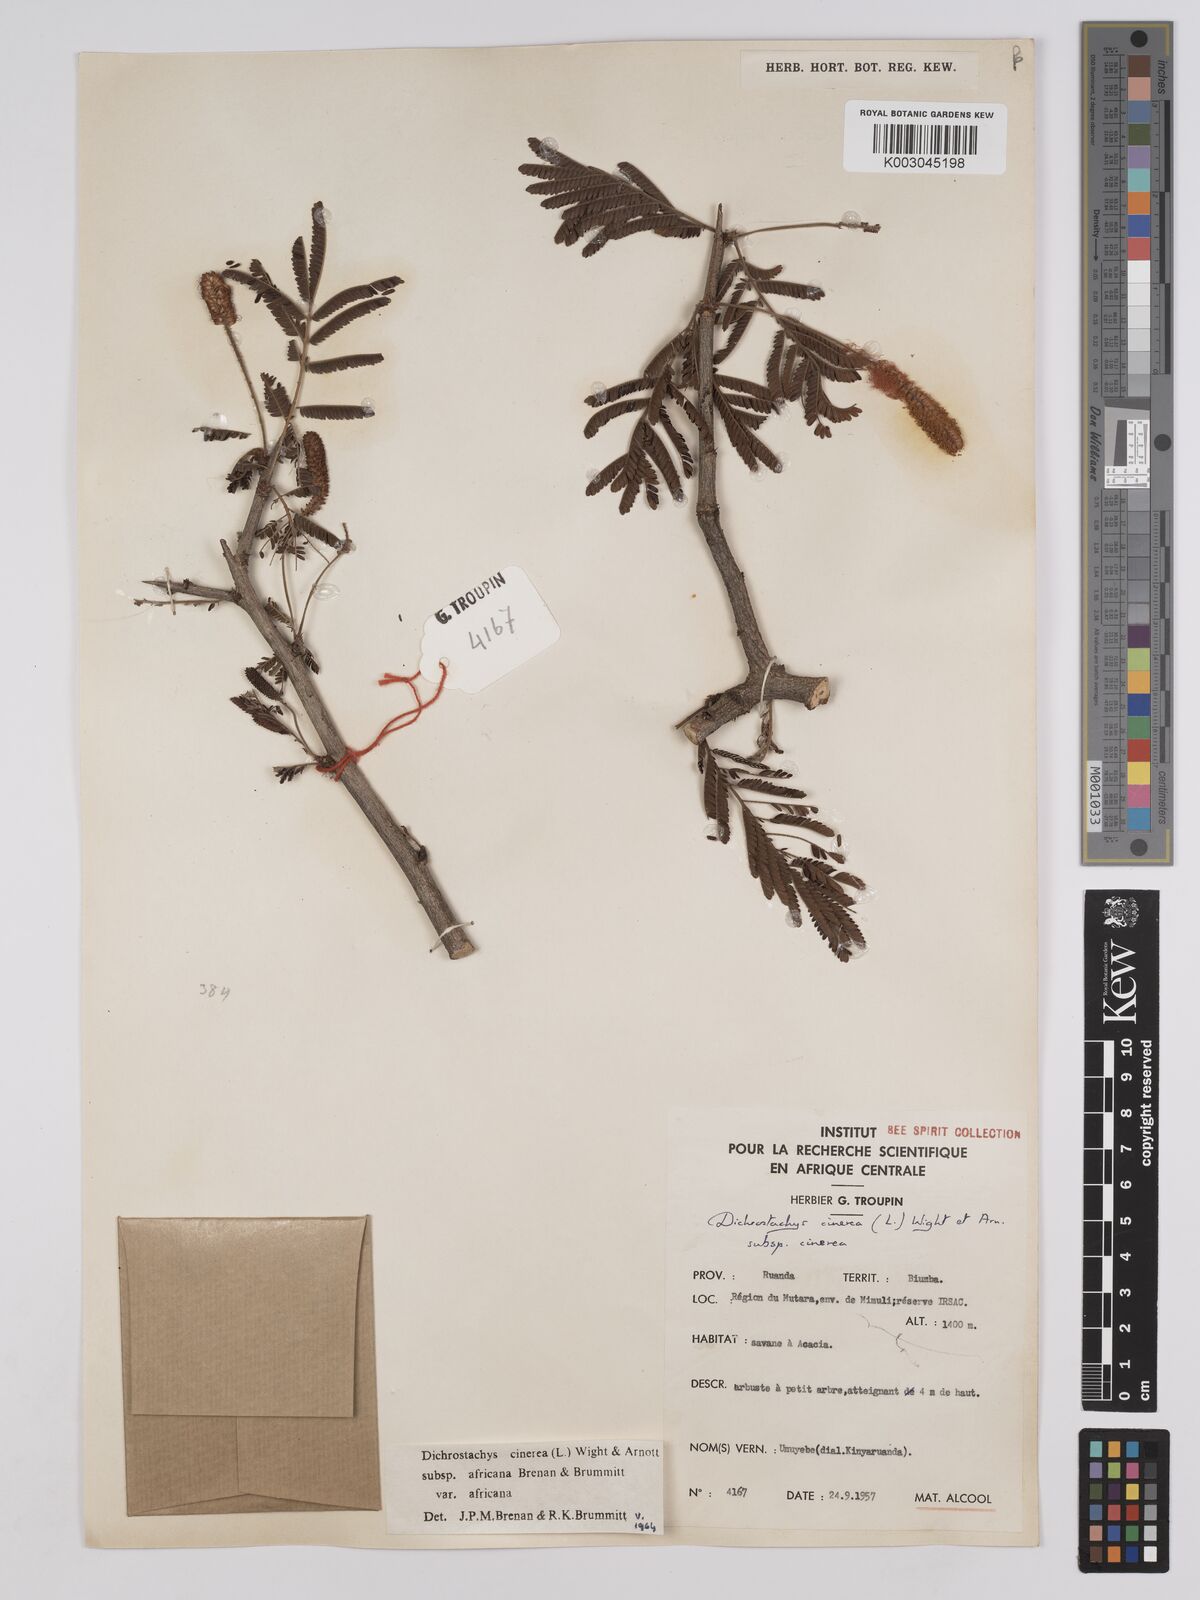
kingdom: Plantae
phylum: Tracheophyta
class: Magnoliopsida
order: Fabales
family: Fabaceae
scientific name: Fabaceae
